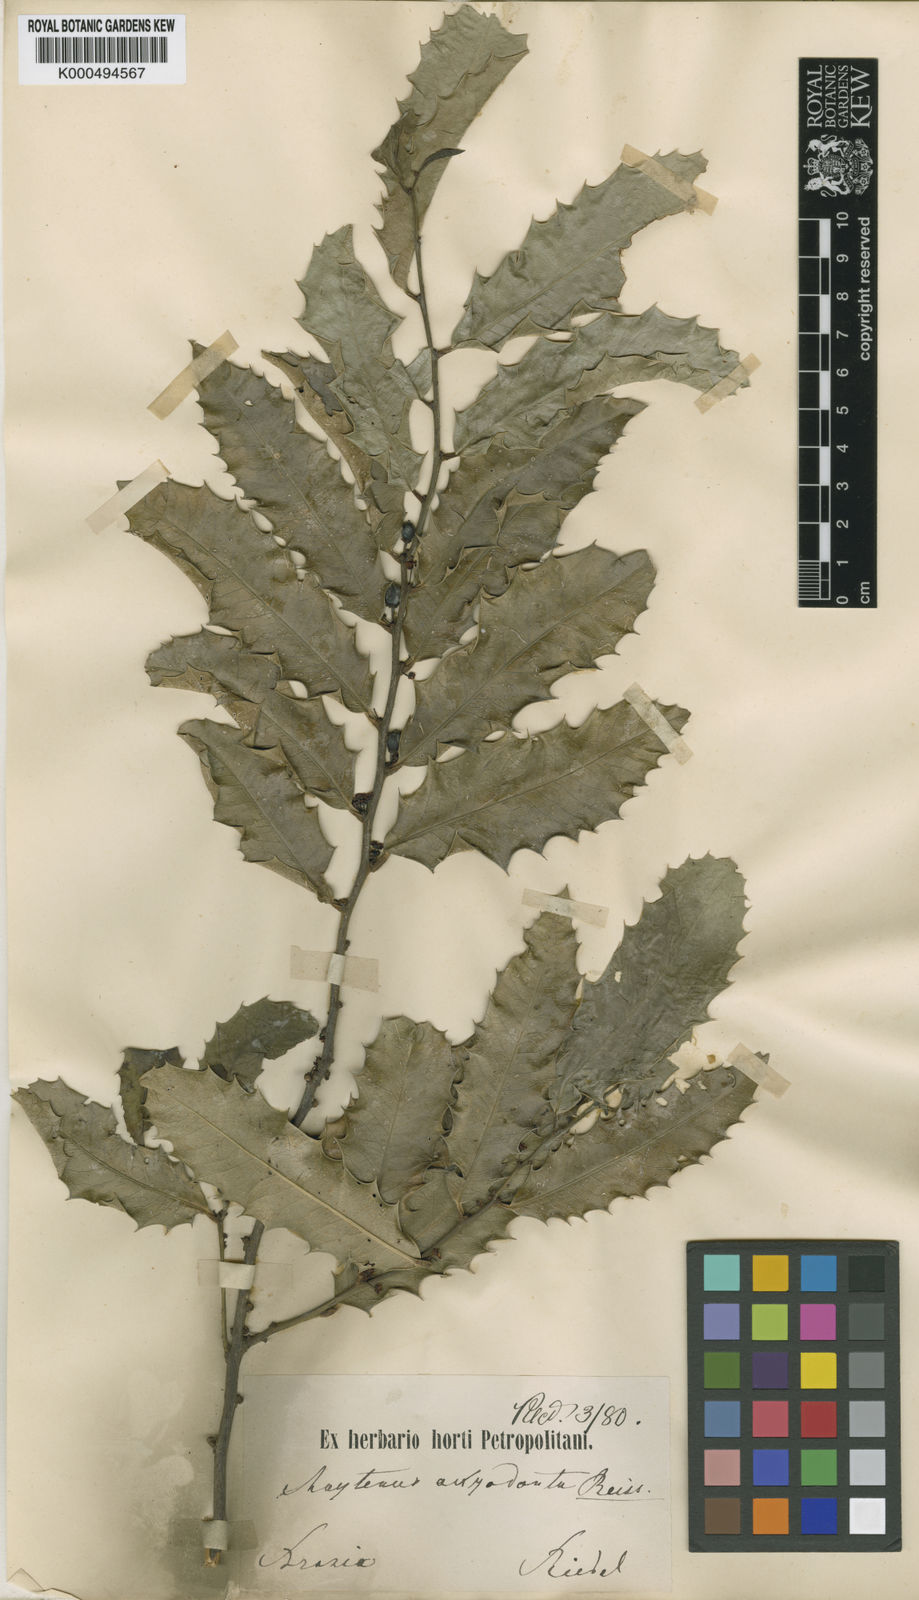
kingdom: Plantae
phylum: Tracheophyta
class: Magnoliopsida
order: Celastrales
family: Celastraceae
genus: Monteverdia
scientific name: Monteverdia aquifolium
